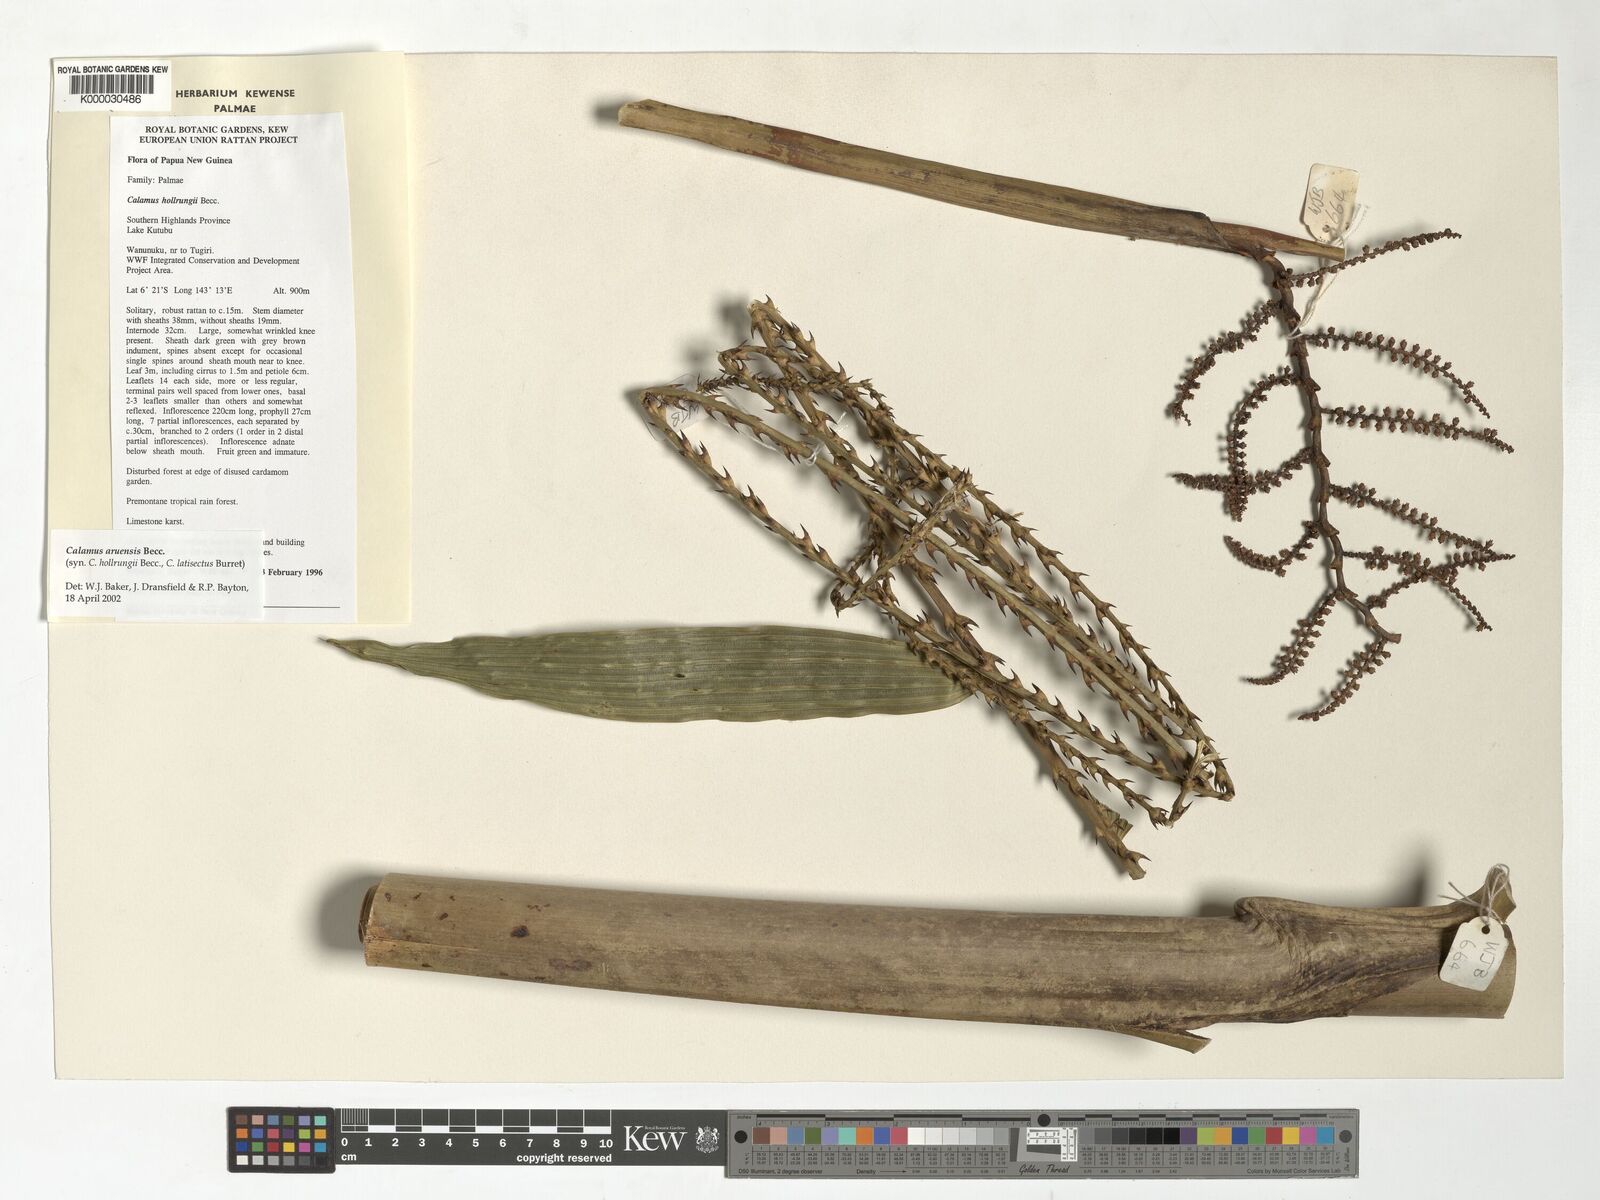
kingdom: Plantae
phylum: Tracheophyta
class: Liliopsida
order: Arecales
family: Arecaceae
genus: Calamus
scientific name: Calamus aruensis
